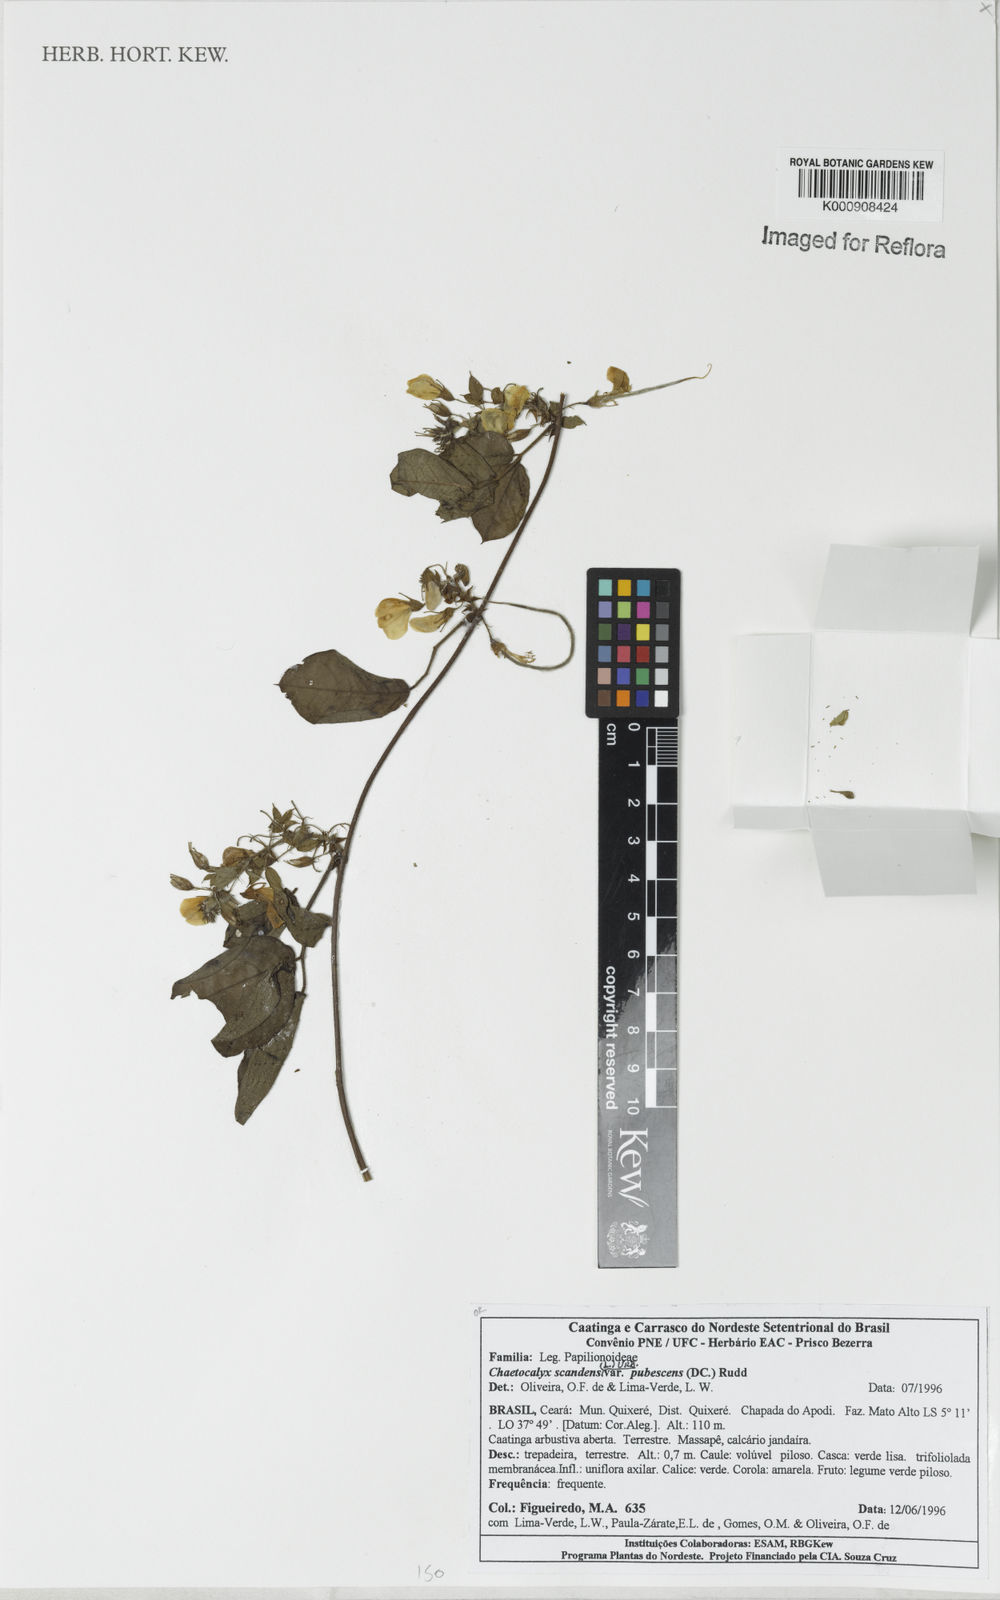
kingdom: Plantae
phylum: Tracheophyta
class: Magnoliopsida
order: Fabales
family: Fabaceae
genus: Nissolia
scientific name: Nissolia vincentina
